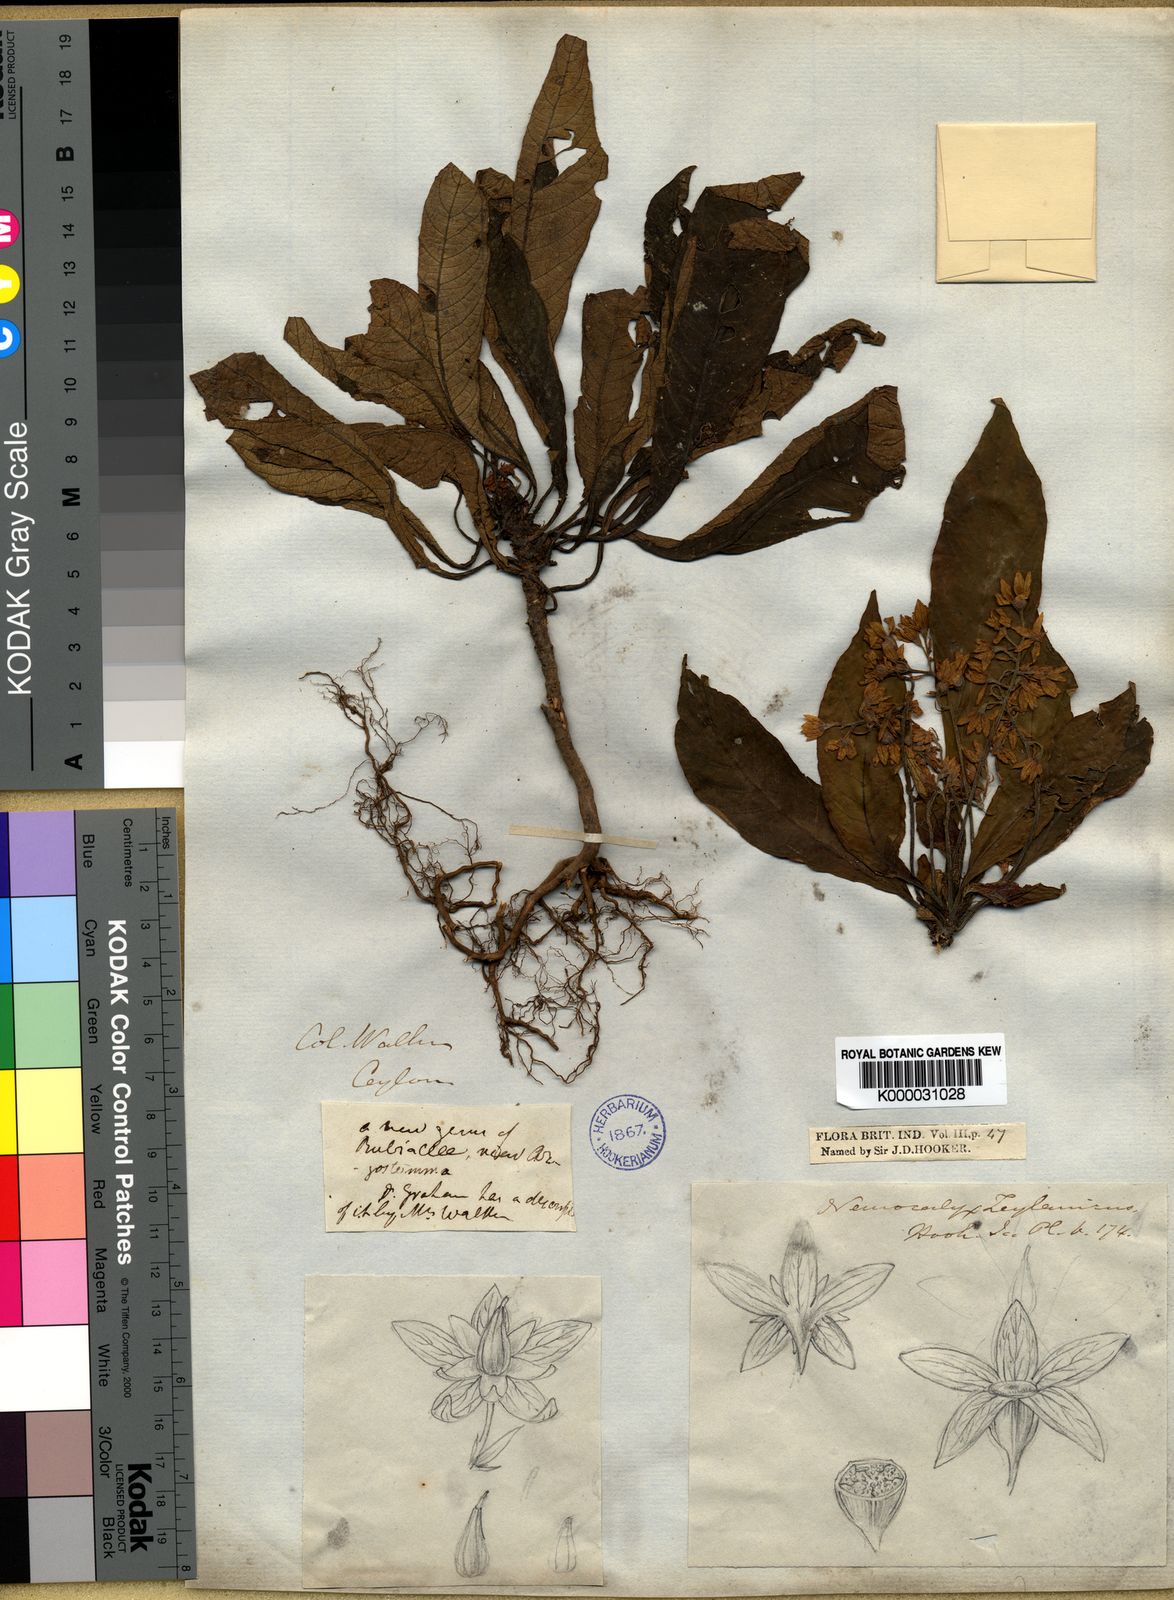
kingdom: Plantae
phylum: Tracheophyta
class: Magnoliopsida
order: Gentianales
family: Rubiaceae
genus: Neurocalyx
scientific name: Neurocalyx zeylanicus
